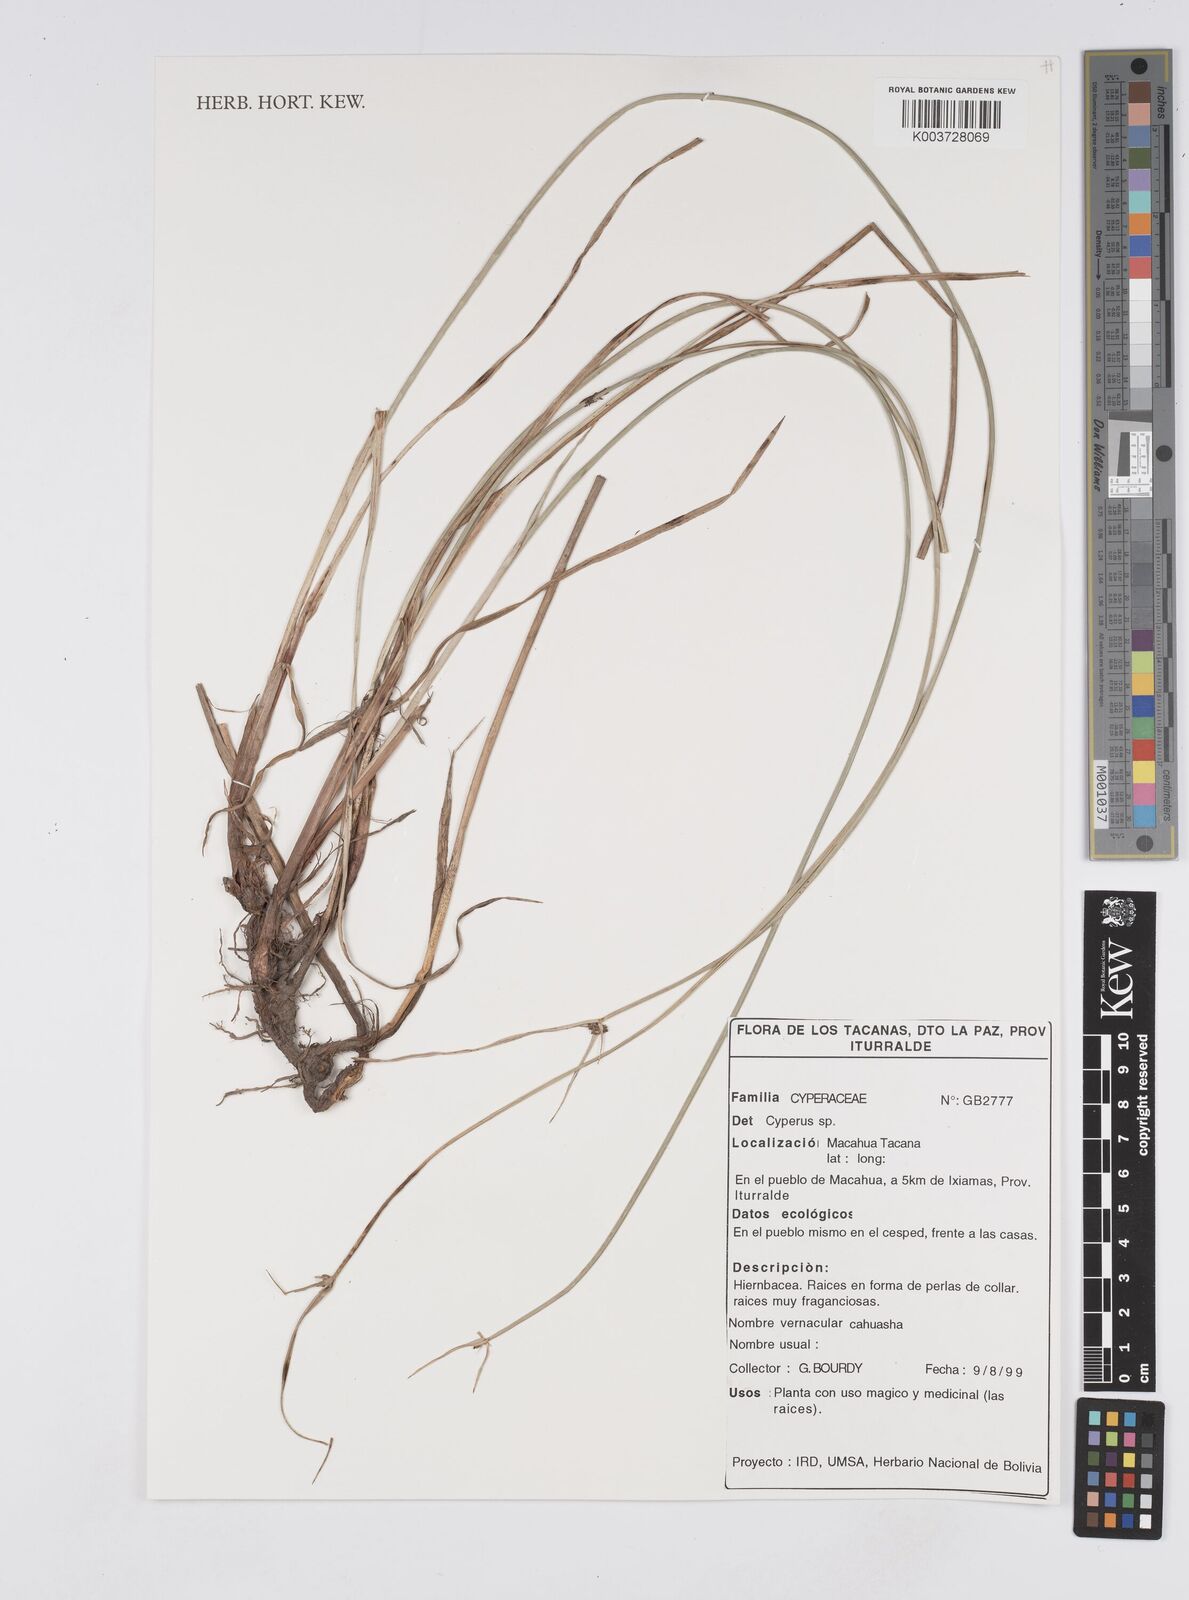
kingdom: Plantae
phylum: Tracheophyta
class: Liliopsida
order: Poales
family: Cyperaceae
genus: Cyperus
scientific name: Cyperus humilis
